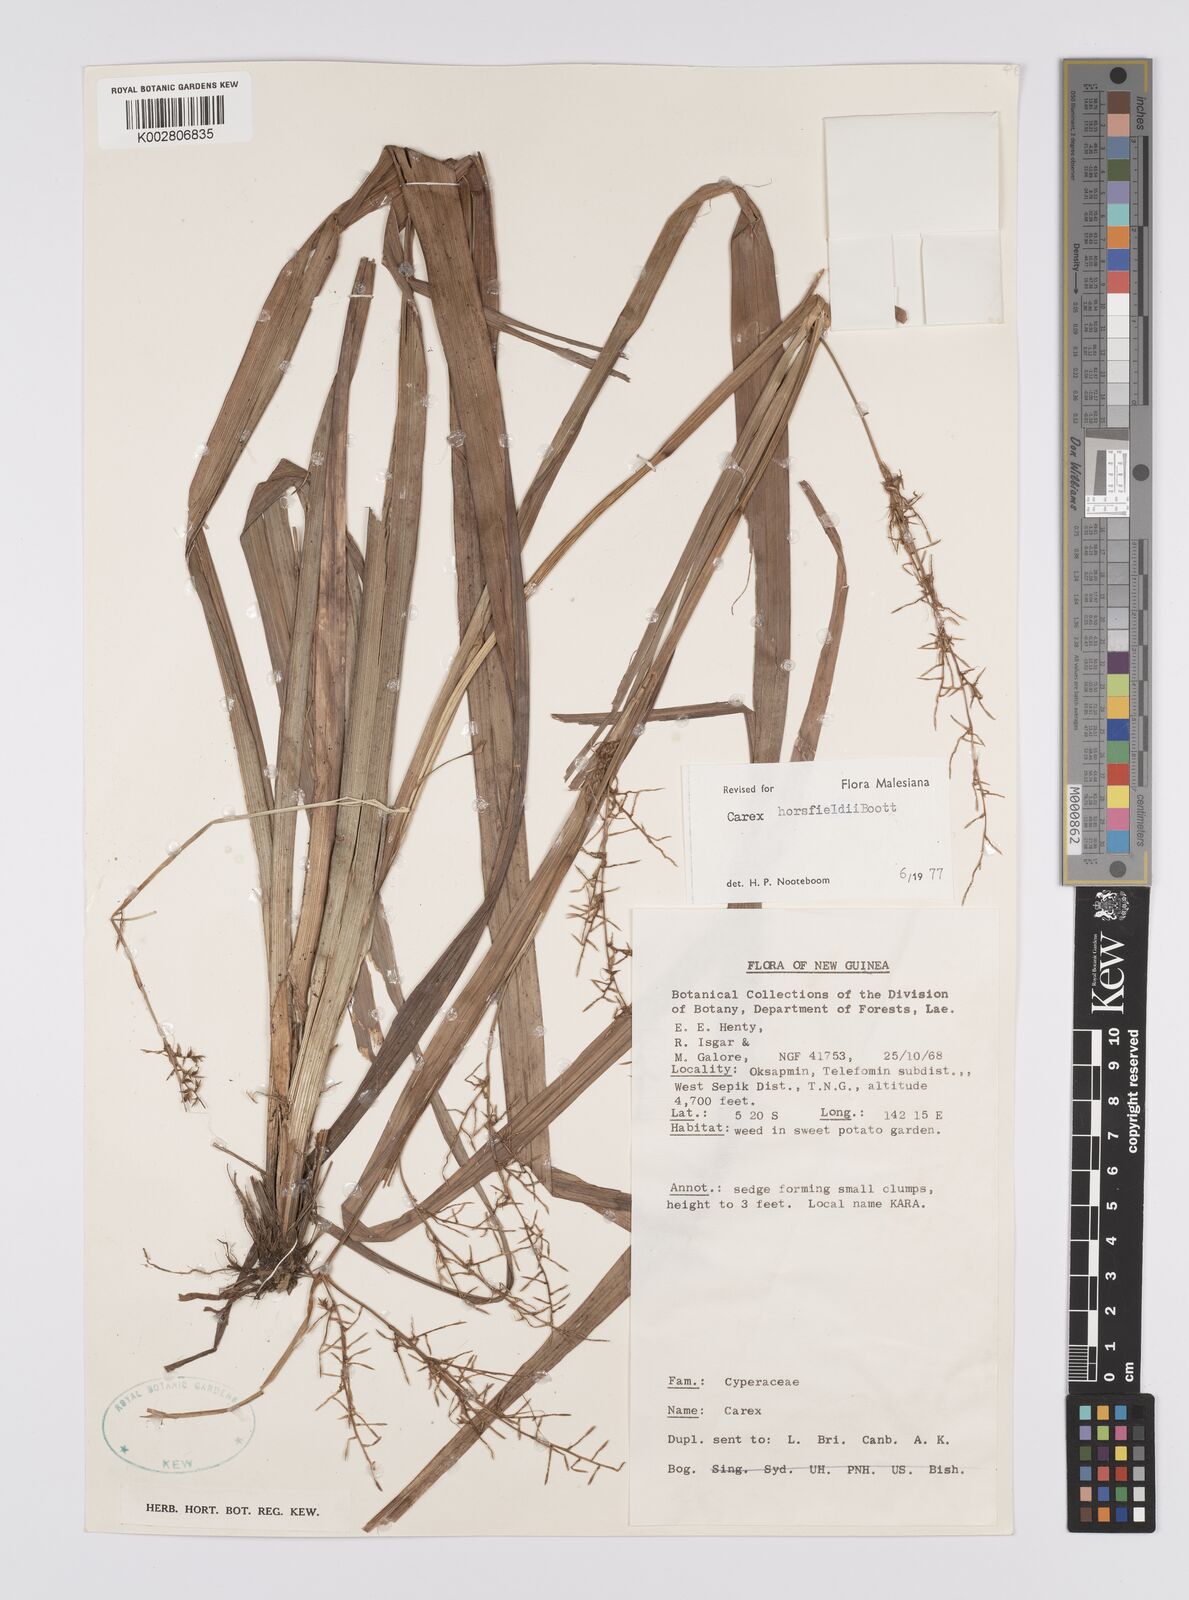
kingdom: Plantae
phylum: Tracheophyta
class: Liliopsida
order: Poales
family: Cyperaceae
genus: Carex
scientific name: Carex horsfieldii
